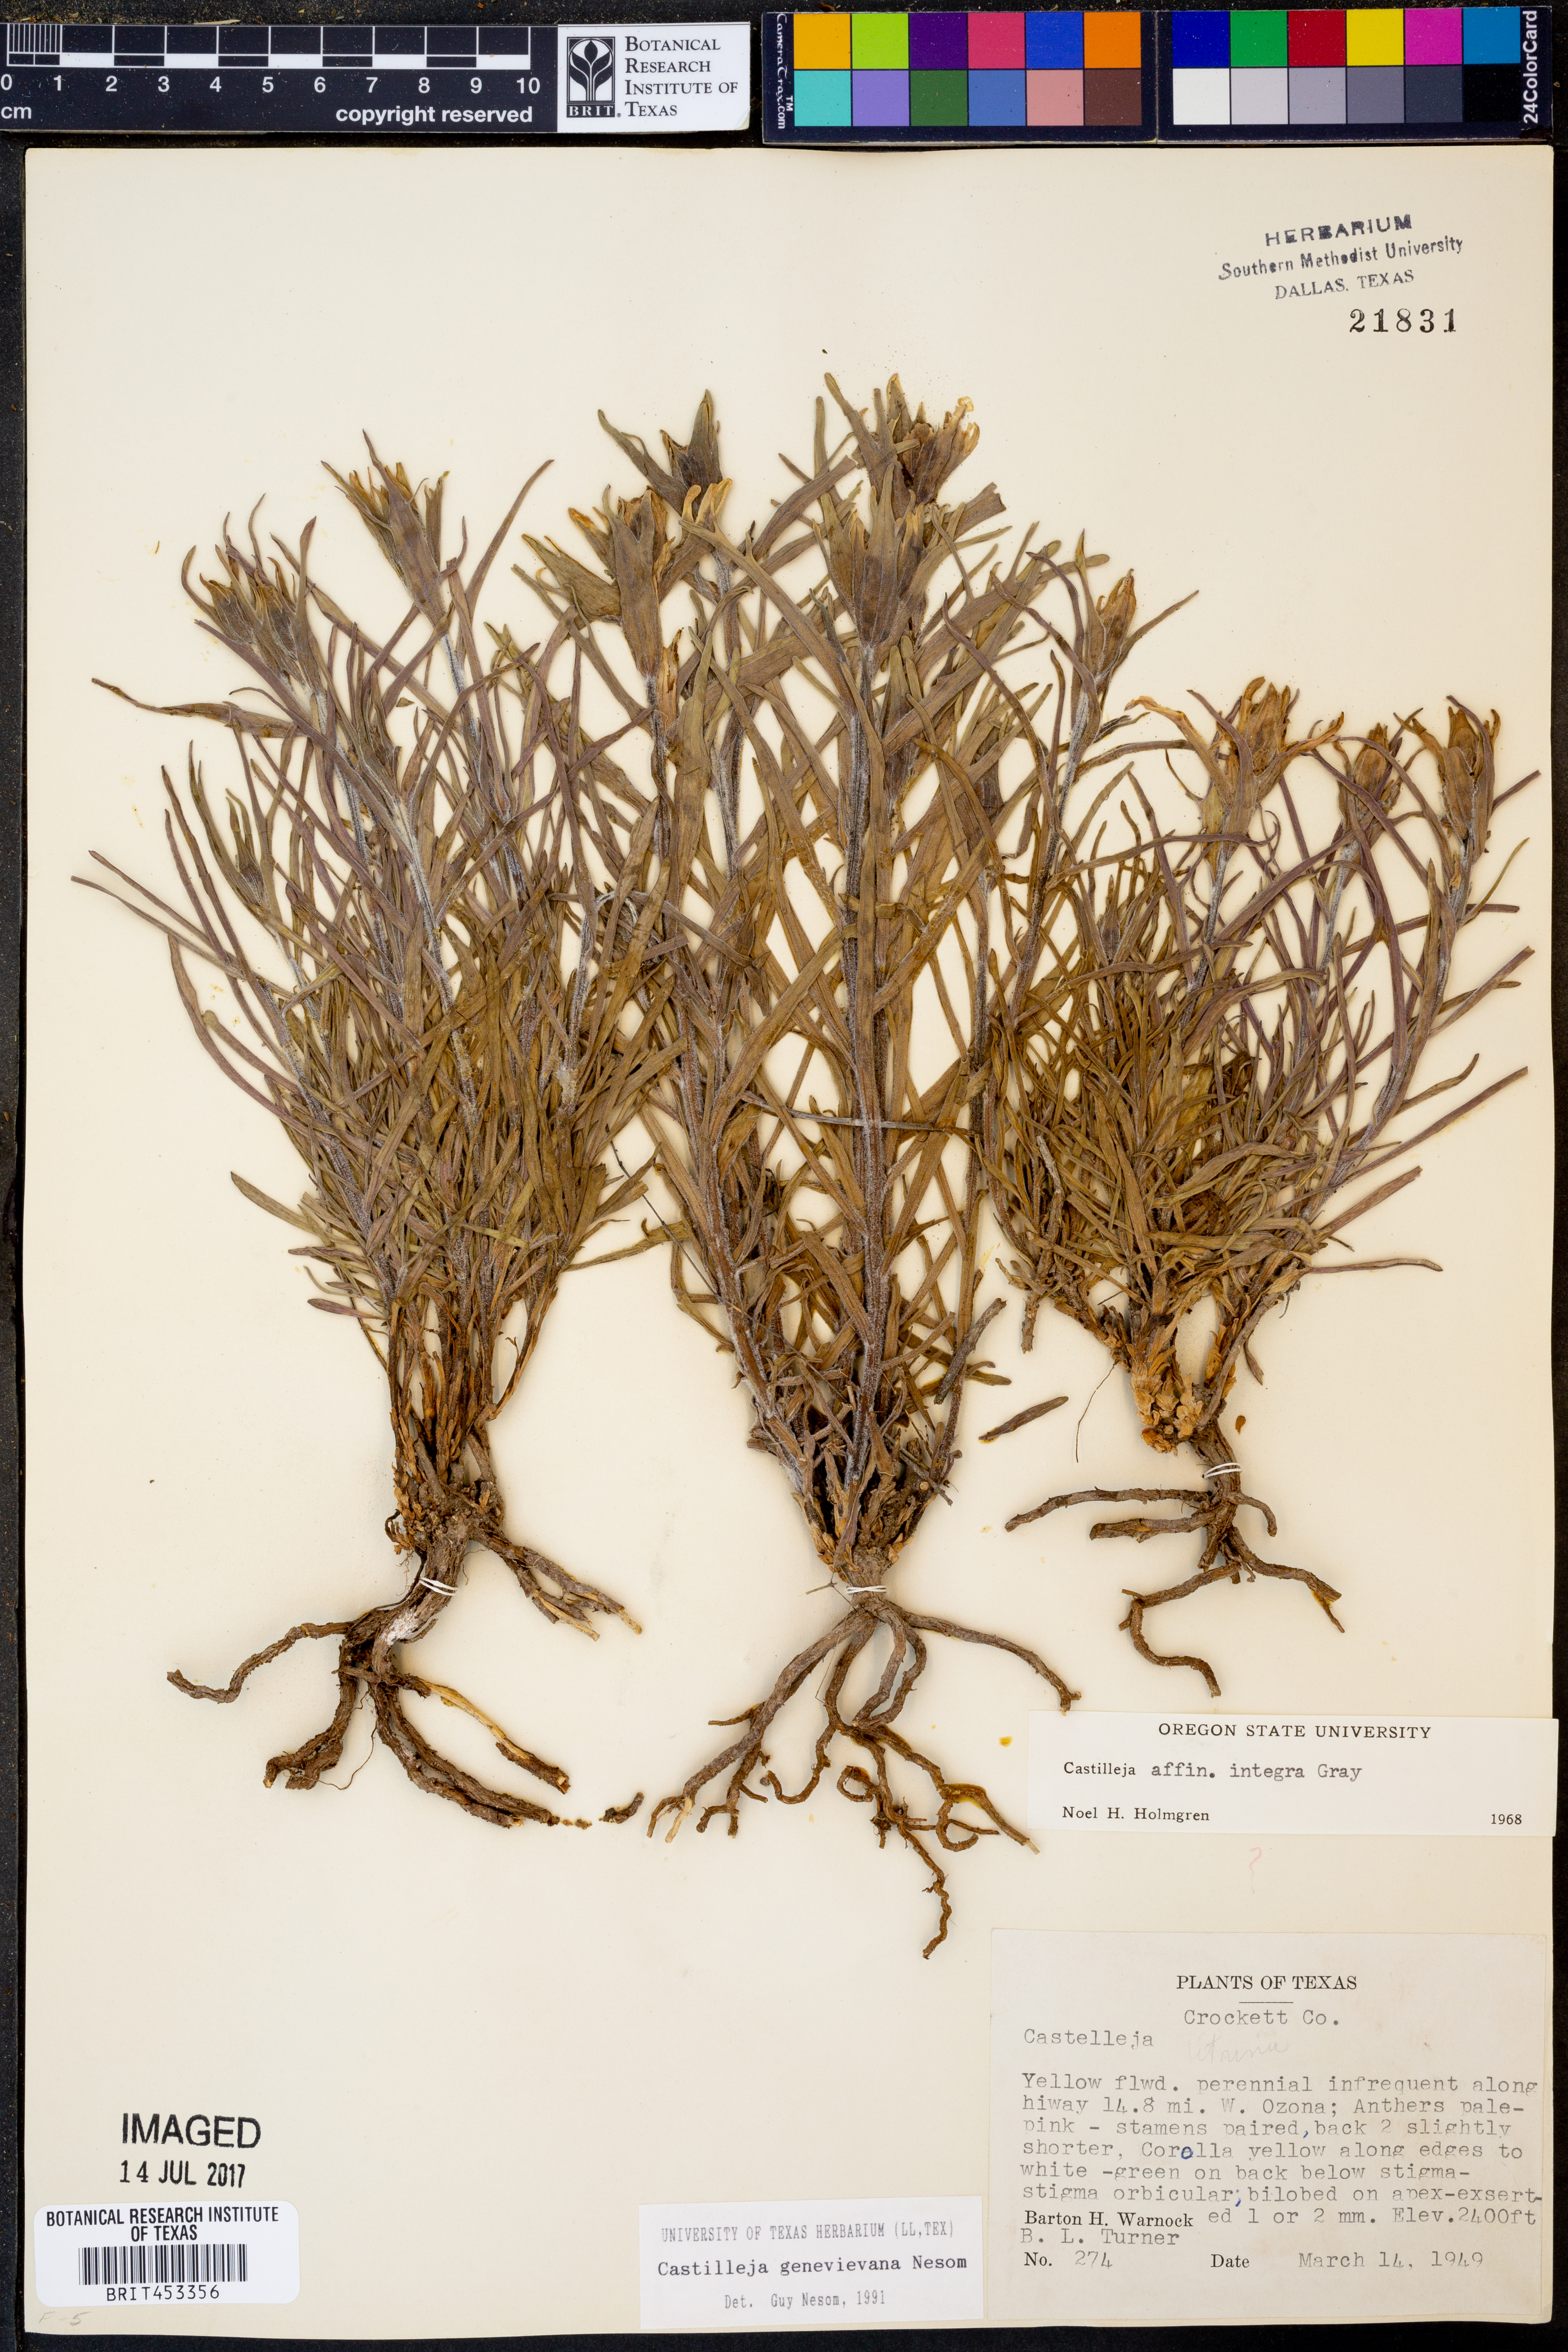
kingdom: Plantae
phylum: Tracheophyta
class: Magnoliopsida
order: Lamiales
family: Orobanchaceae
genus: Castilleja
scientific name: Castilleja genevievana
